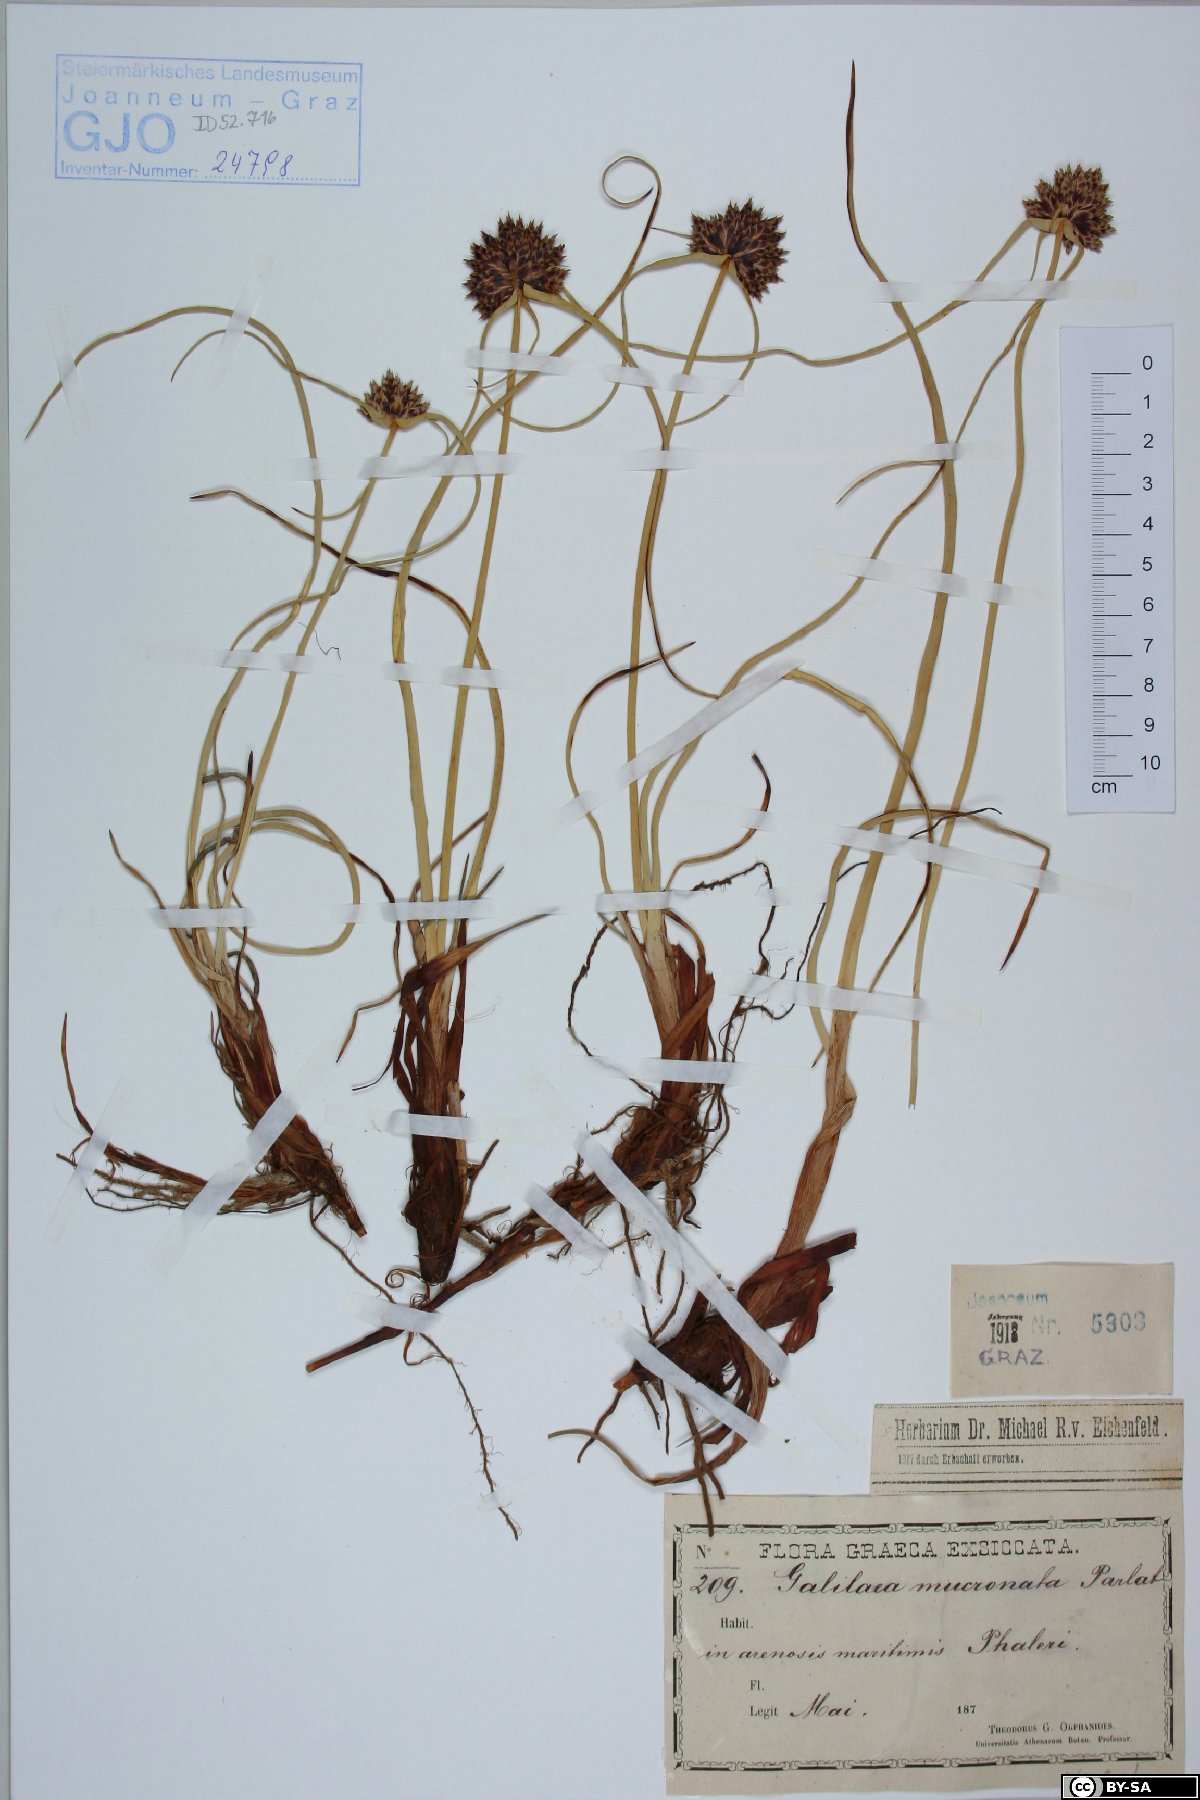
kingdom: Plantae
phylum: Tracheophyta
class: Liliopsida
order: Poales
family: Cyperaceae
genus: Cyperus
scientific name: Cyperus capitatus
